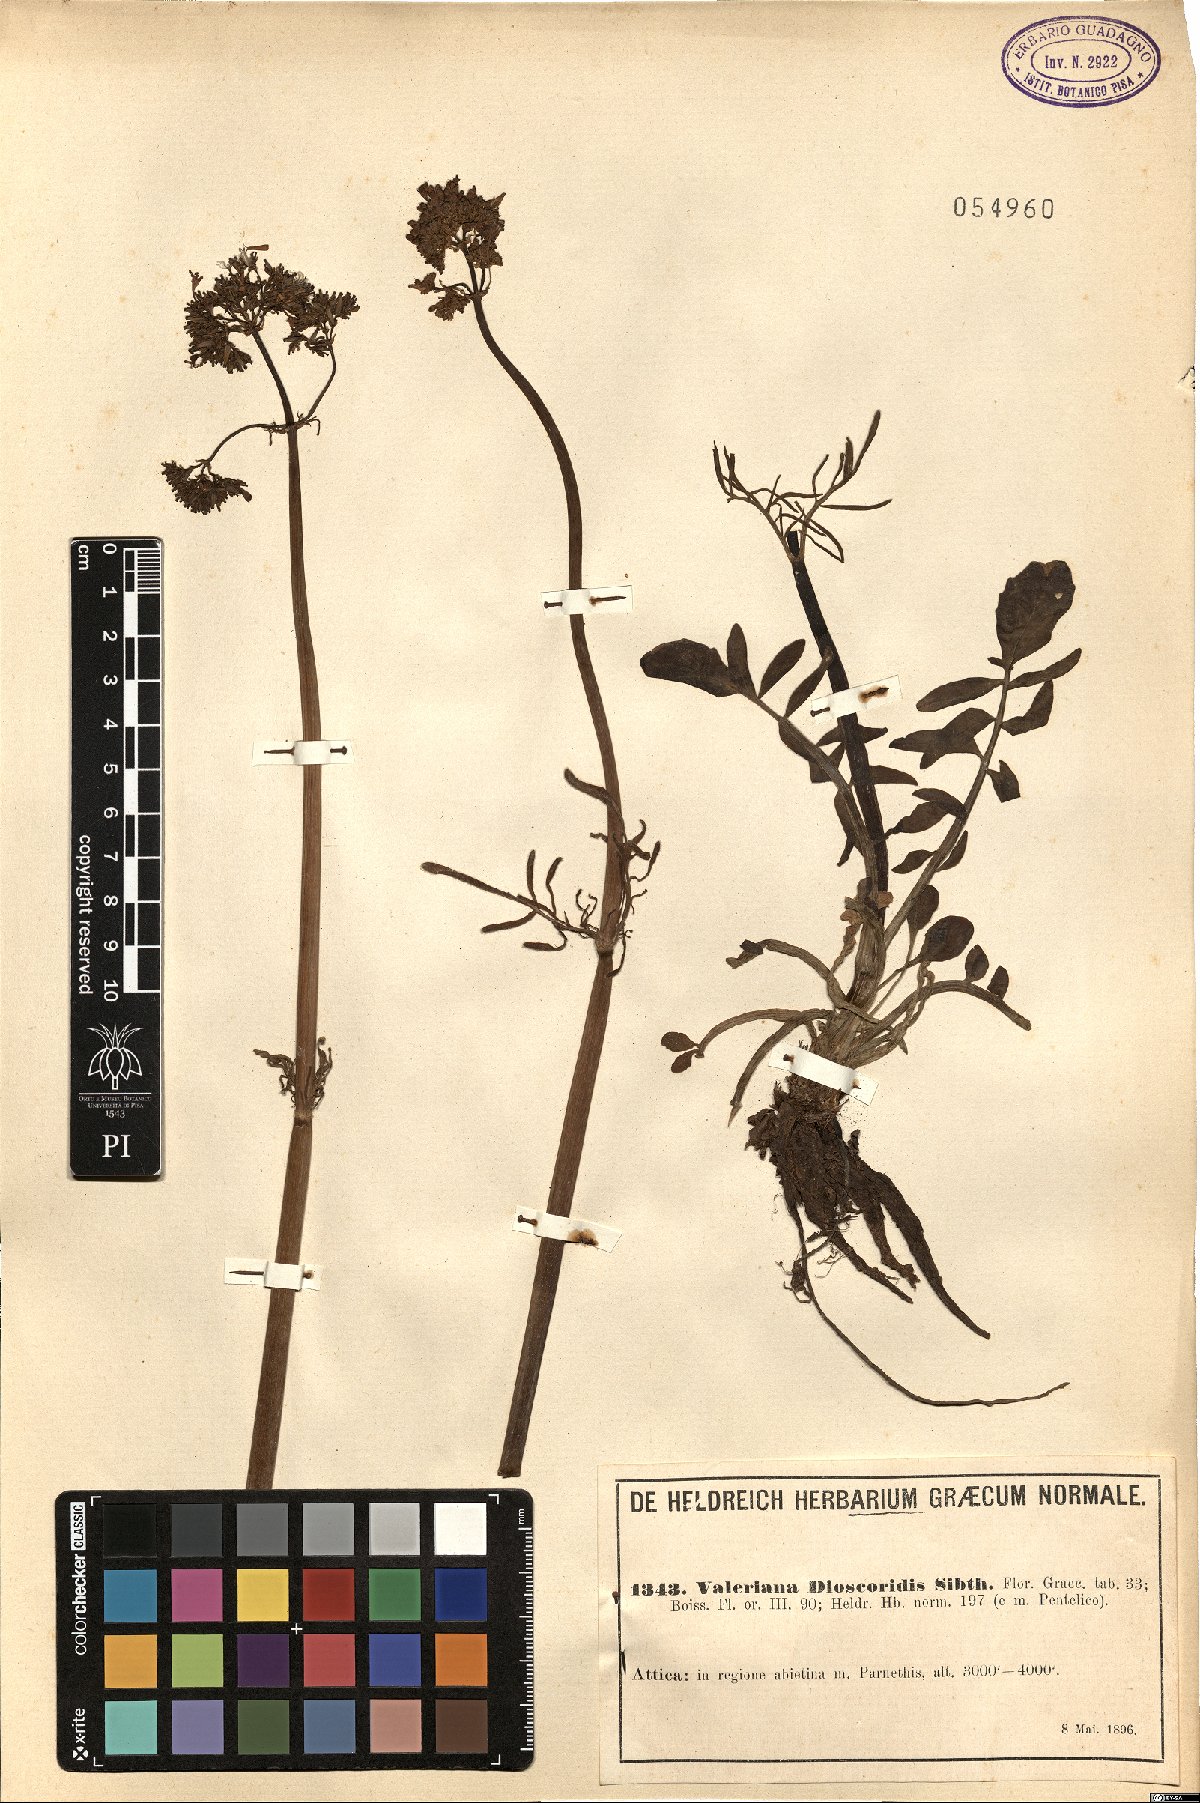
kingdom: Plantae
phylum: Tracheophyta
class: Magnoliopsida
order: Dipsacales
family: Caprifoliaceae
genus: Valeriana
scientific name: Valeriana dioscoridis
